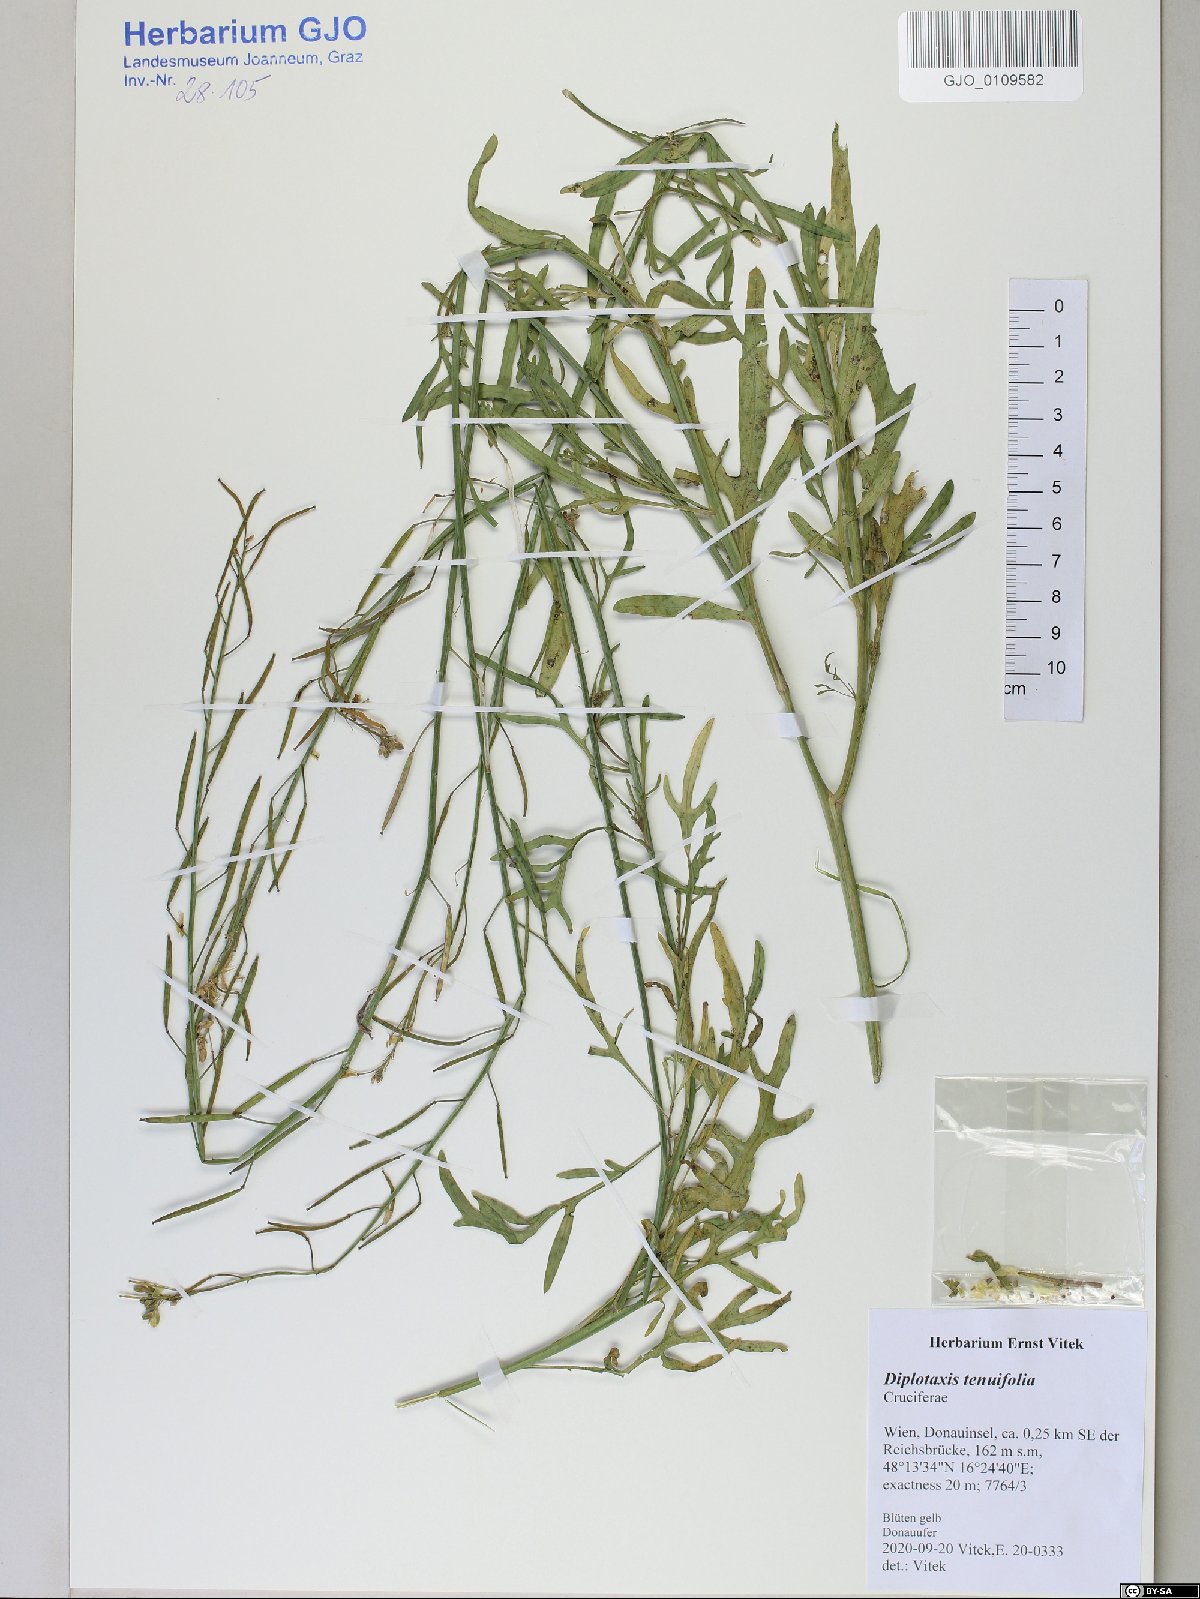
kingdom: Plantae
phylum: Tracheophyta
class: Magnoliopsida
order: Brassicales
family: Brassicaceae
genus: Diplotaxis
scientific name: Diplotaxis tenuifolia
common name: Perennial wall-rocket
